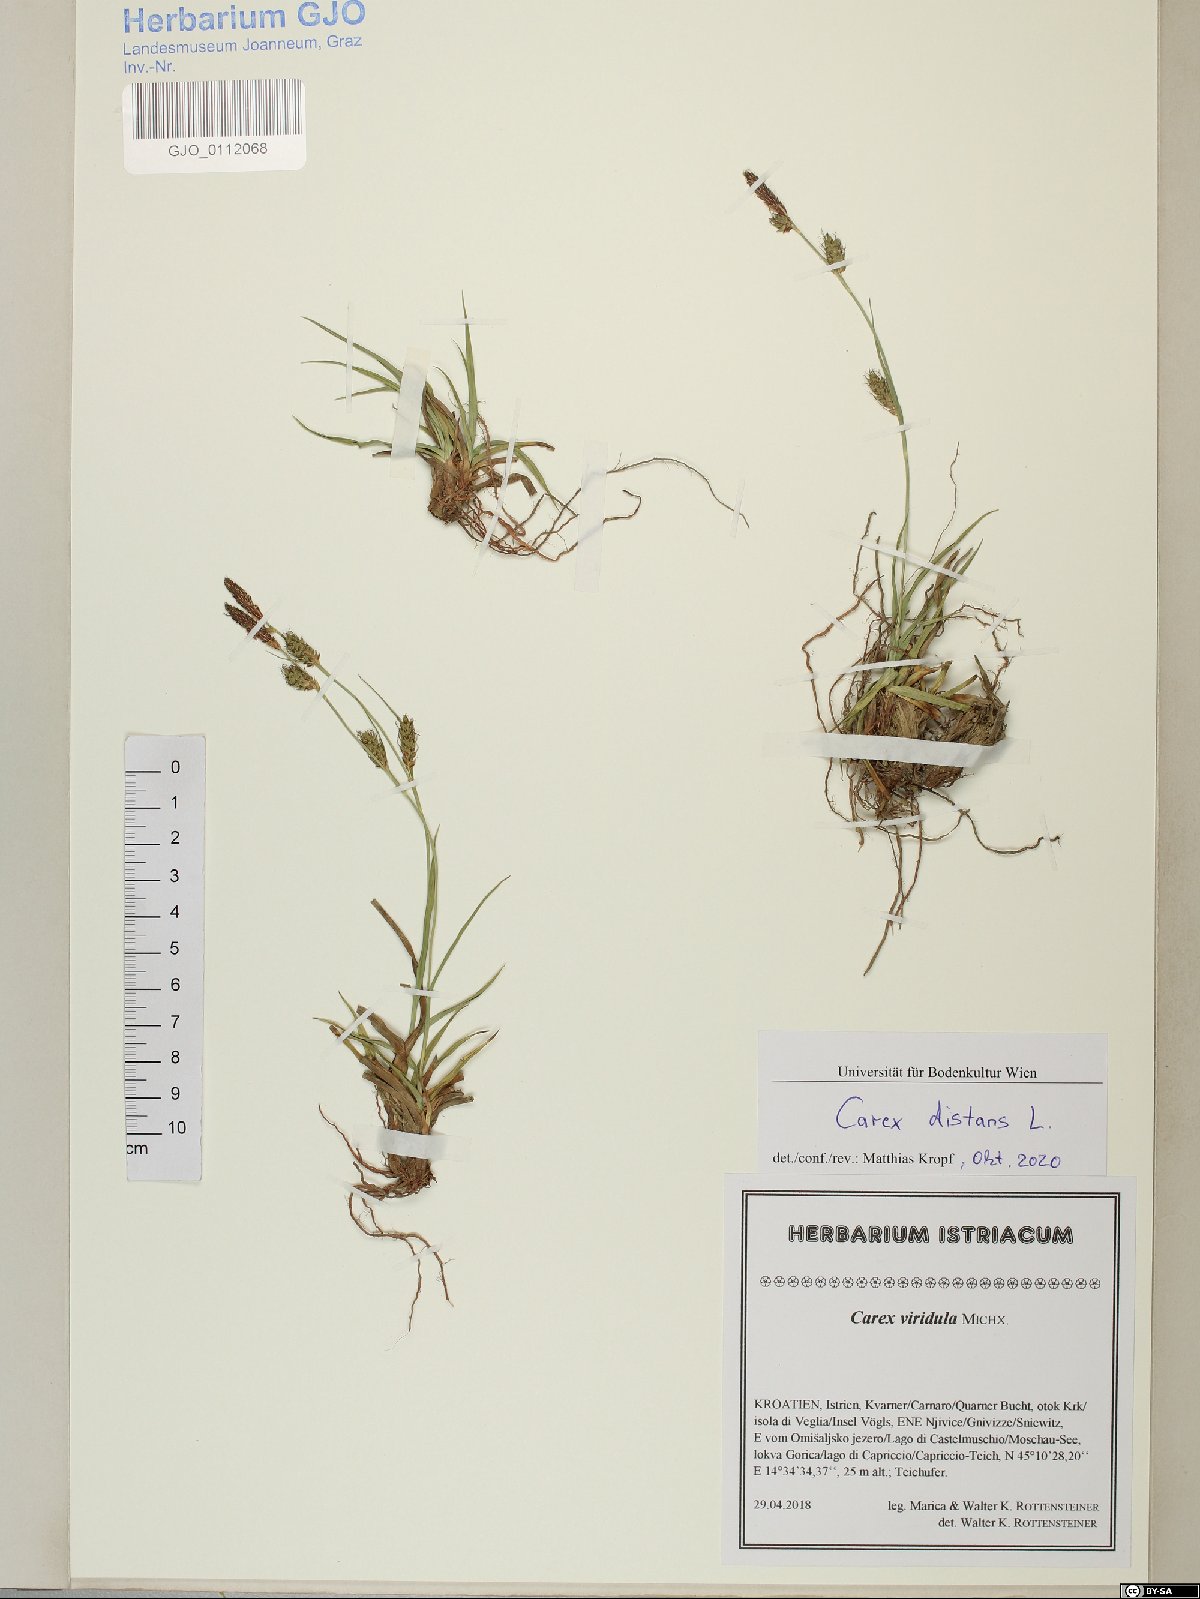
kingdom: Plantae
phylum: Tracheophyta
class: Liliopsida
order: Poales
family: Cyperaceae
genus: Carex
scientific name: Carex distans
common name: Distant sedge
